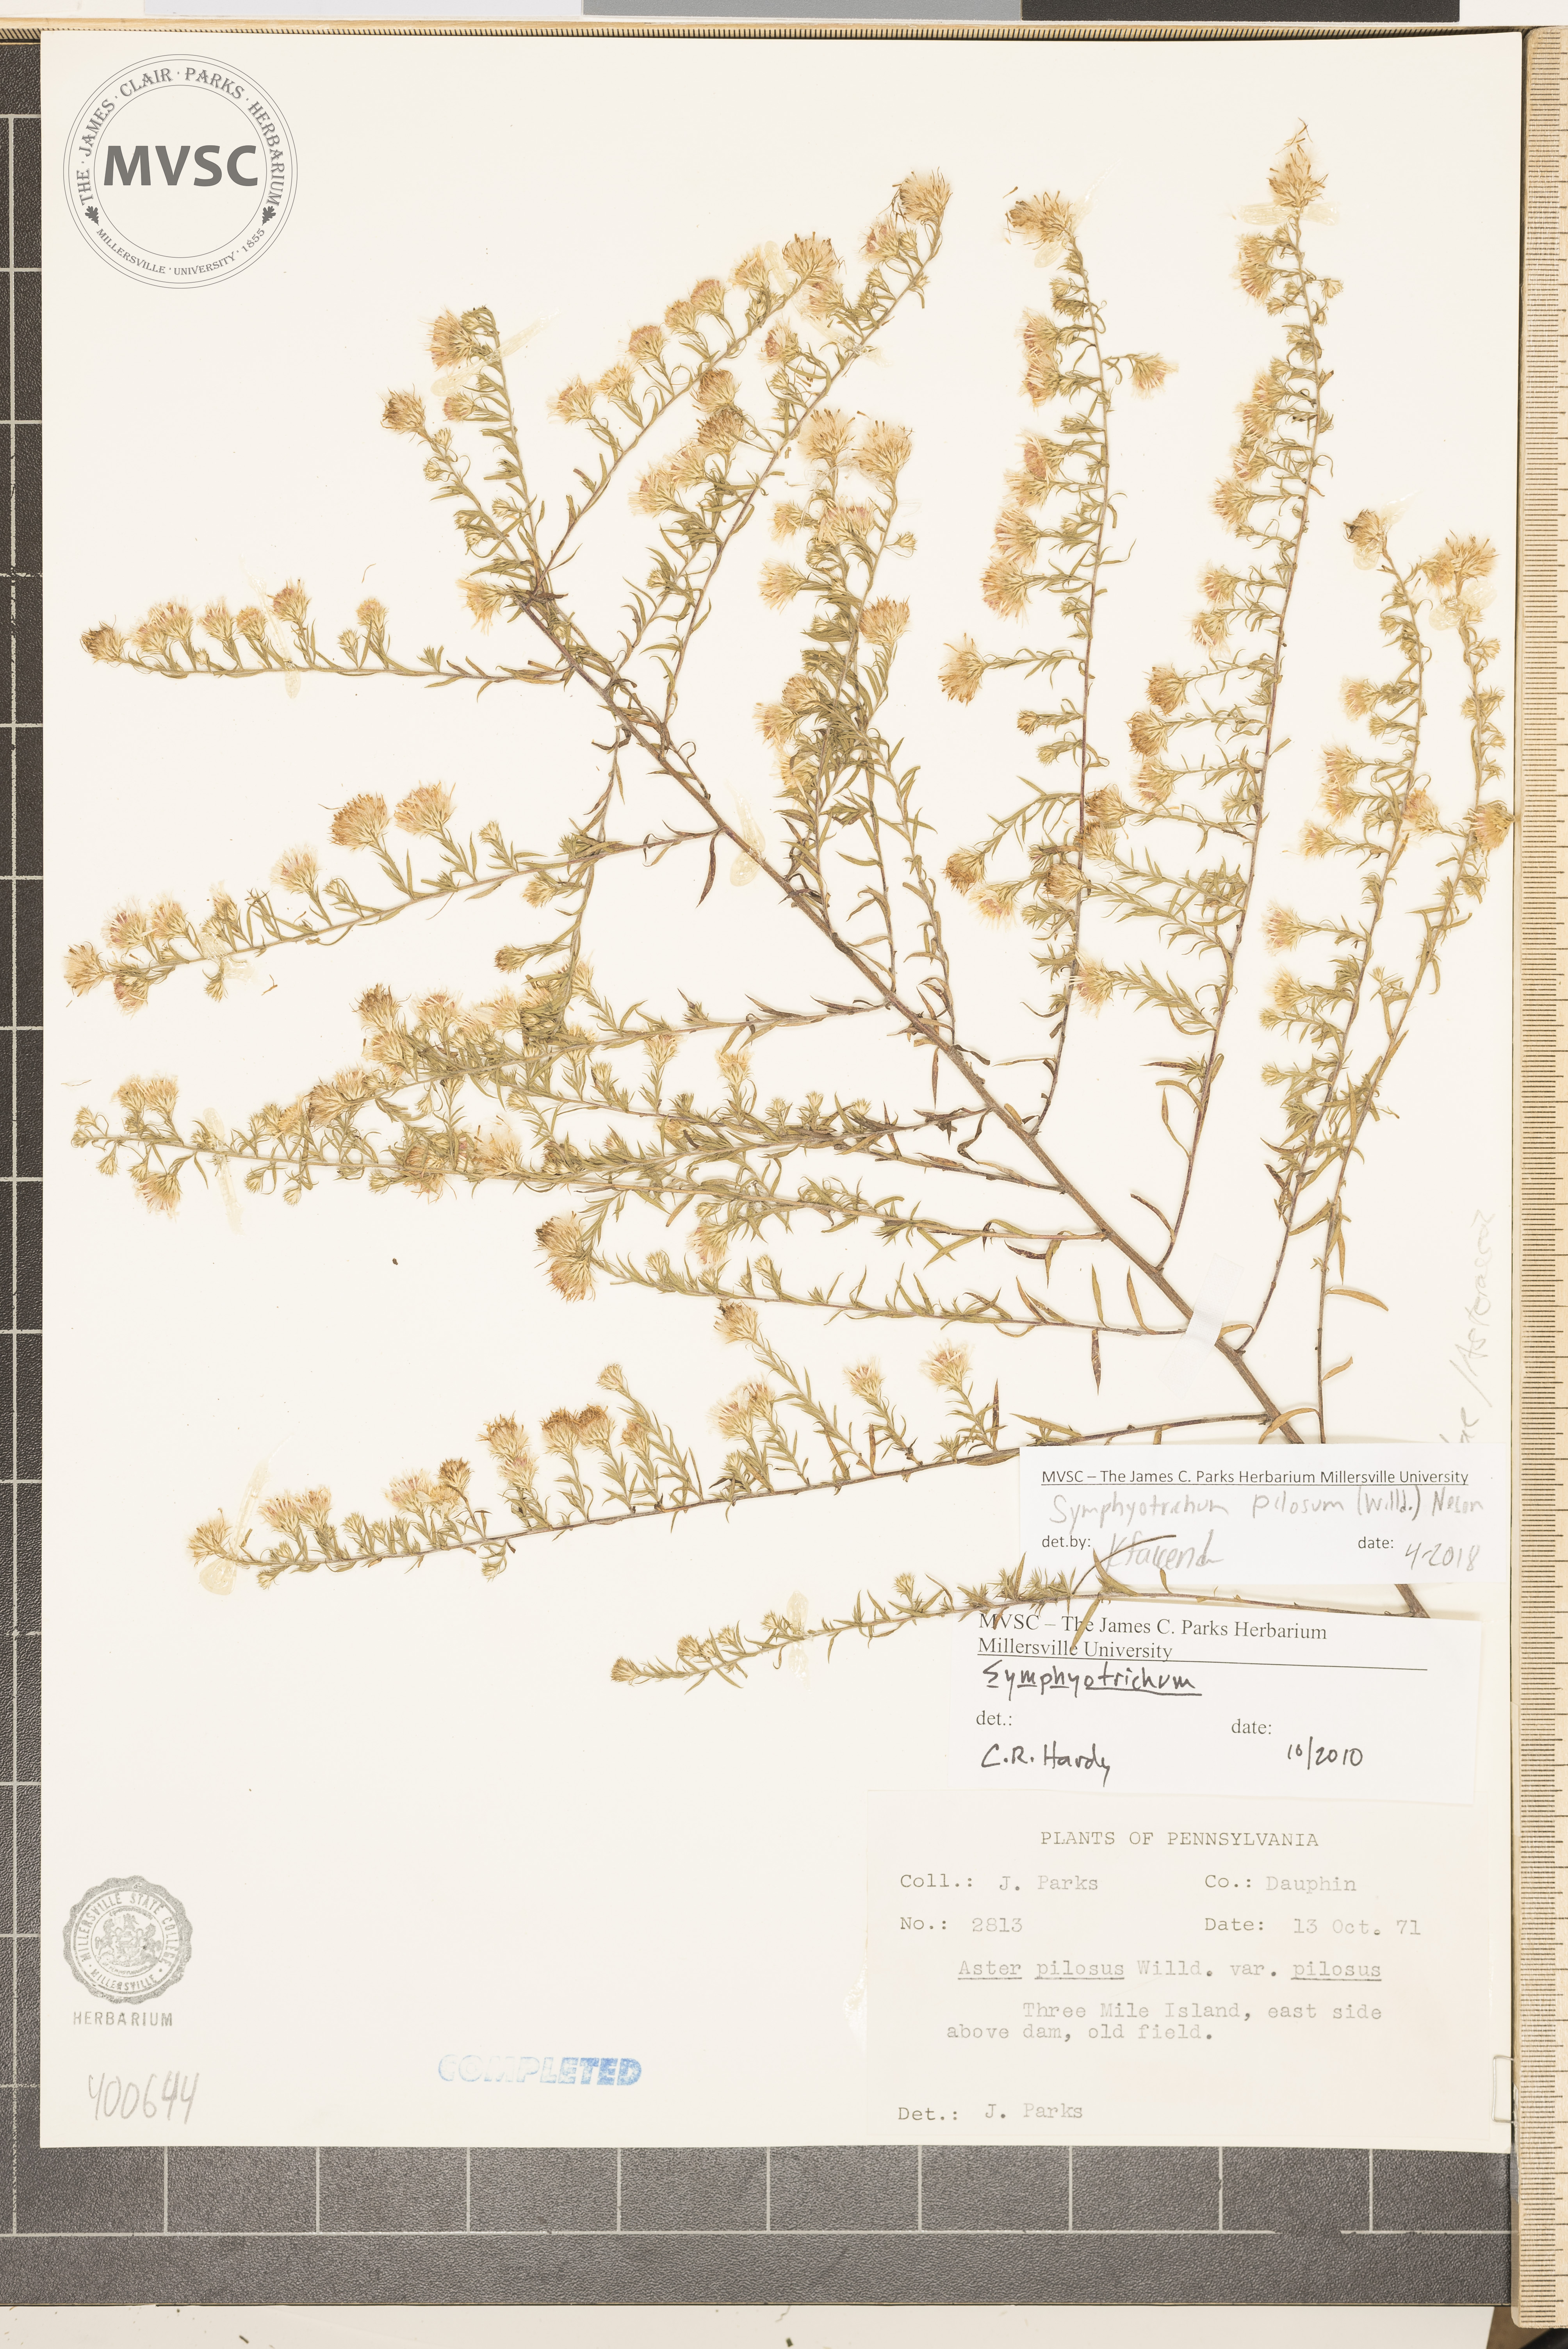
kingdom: Plantae
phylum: Tracheophyta
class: Magnoliopsida
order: Asterales
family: Asteraceae
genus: Symphyotrichum
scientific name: Symphyotrichum pilosum
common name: aster
